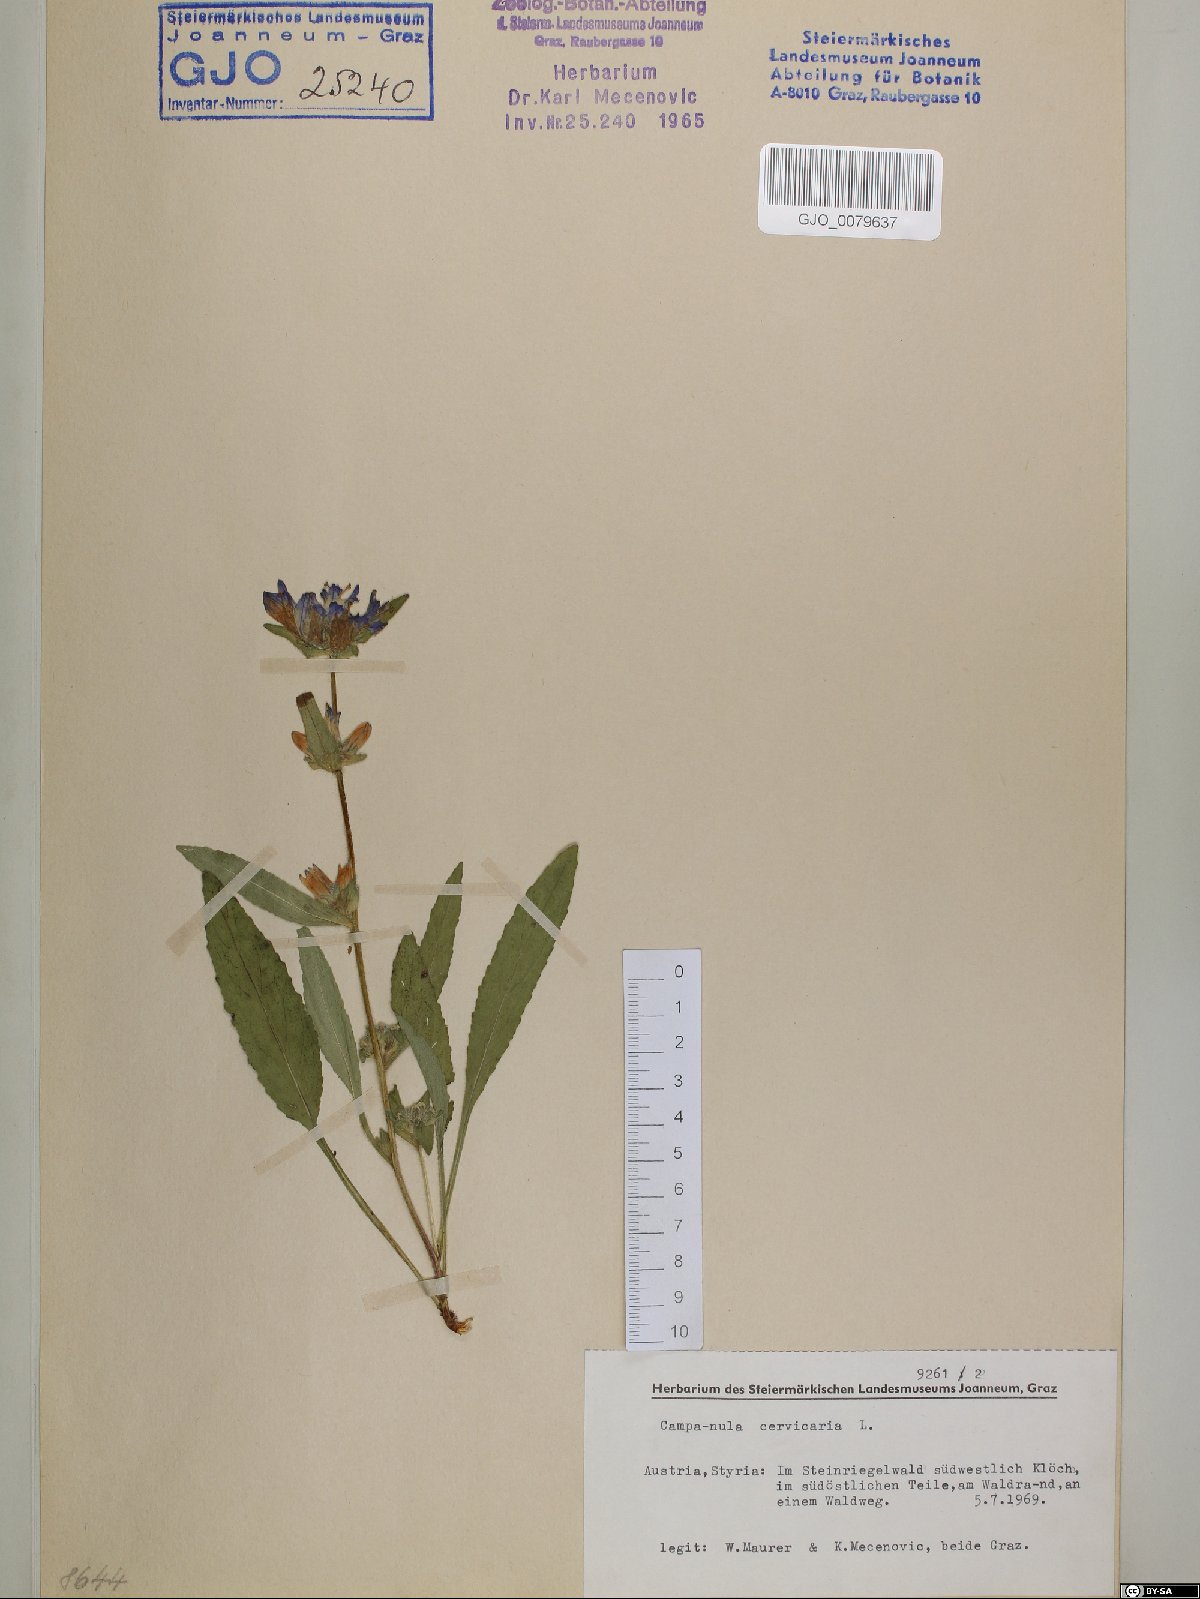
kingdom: Plantae
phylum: Tracheophyta
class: Magnoliopsida
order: Asterales
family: Campanulaceae
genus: Campanula
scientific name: Campanula cervicaria
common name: Bristly bellflower
